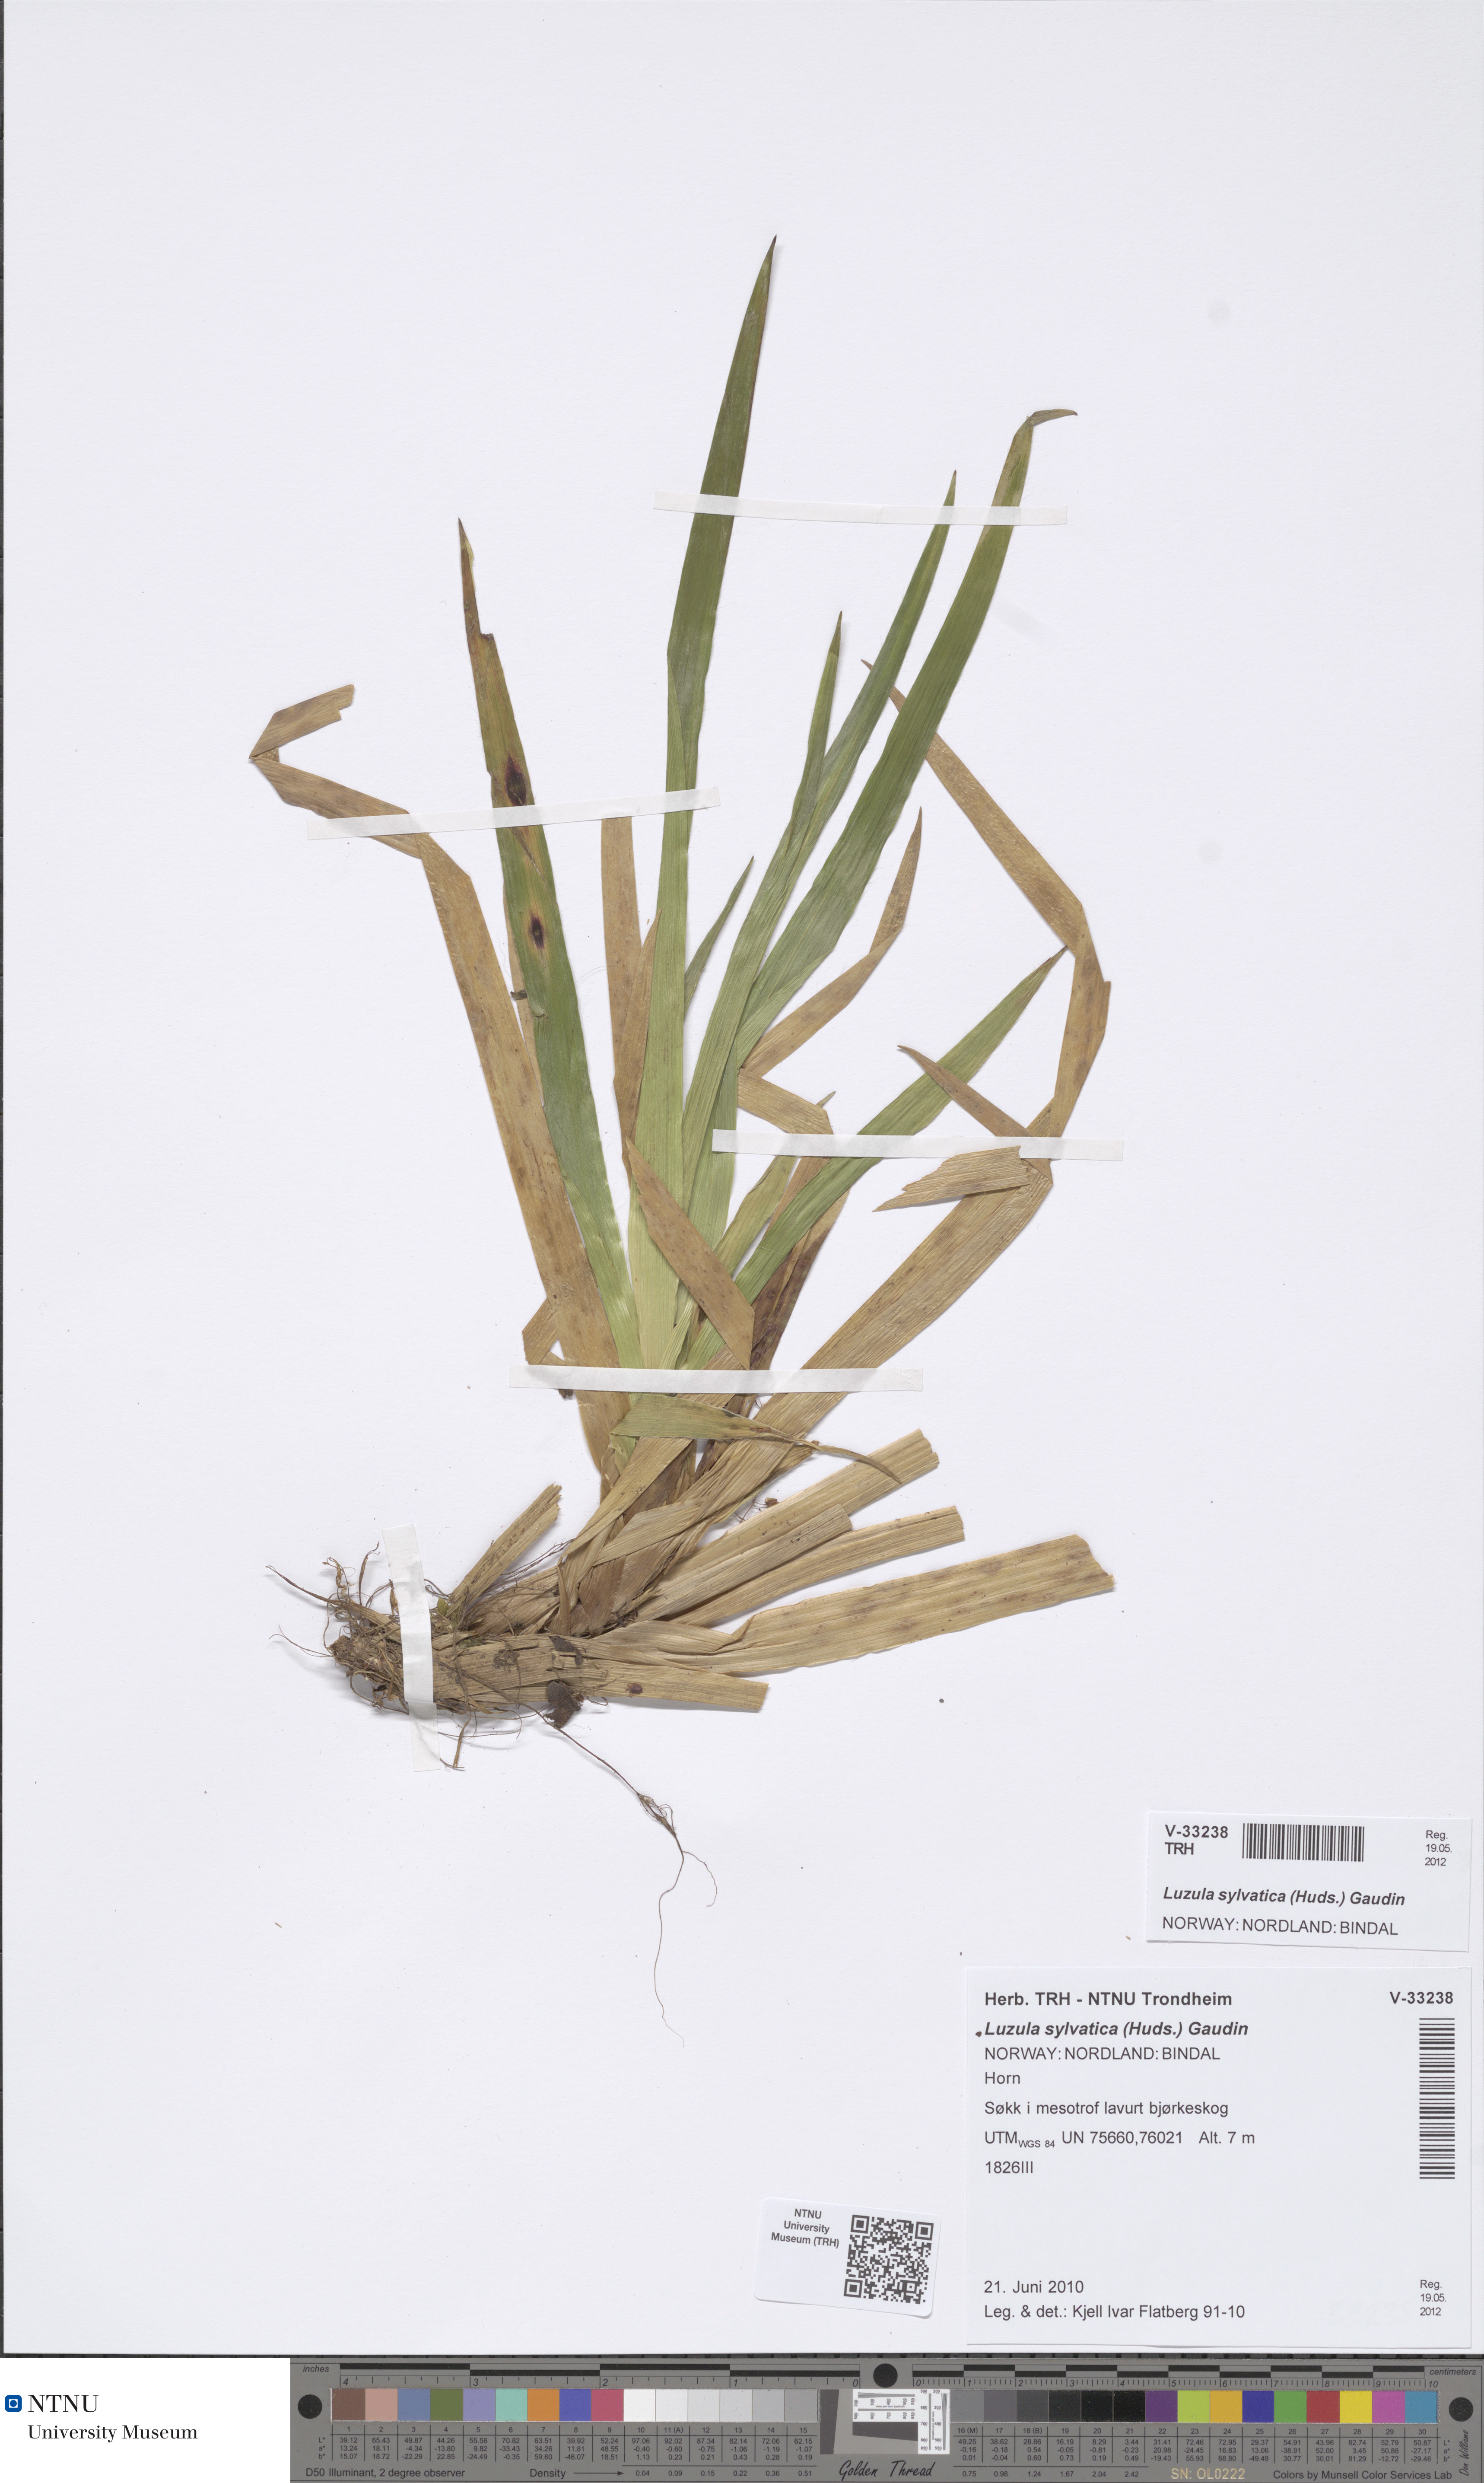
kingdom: Plantae
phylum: Tracheophyta
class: Liliopsida
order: Poales
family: Juncaceae
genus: Luzula
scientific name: Luzula sylvatica
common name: Great wood-rush
